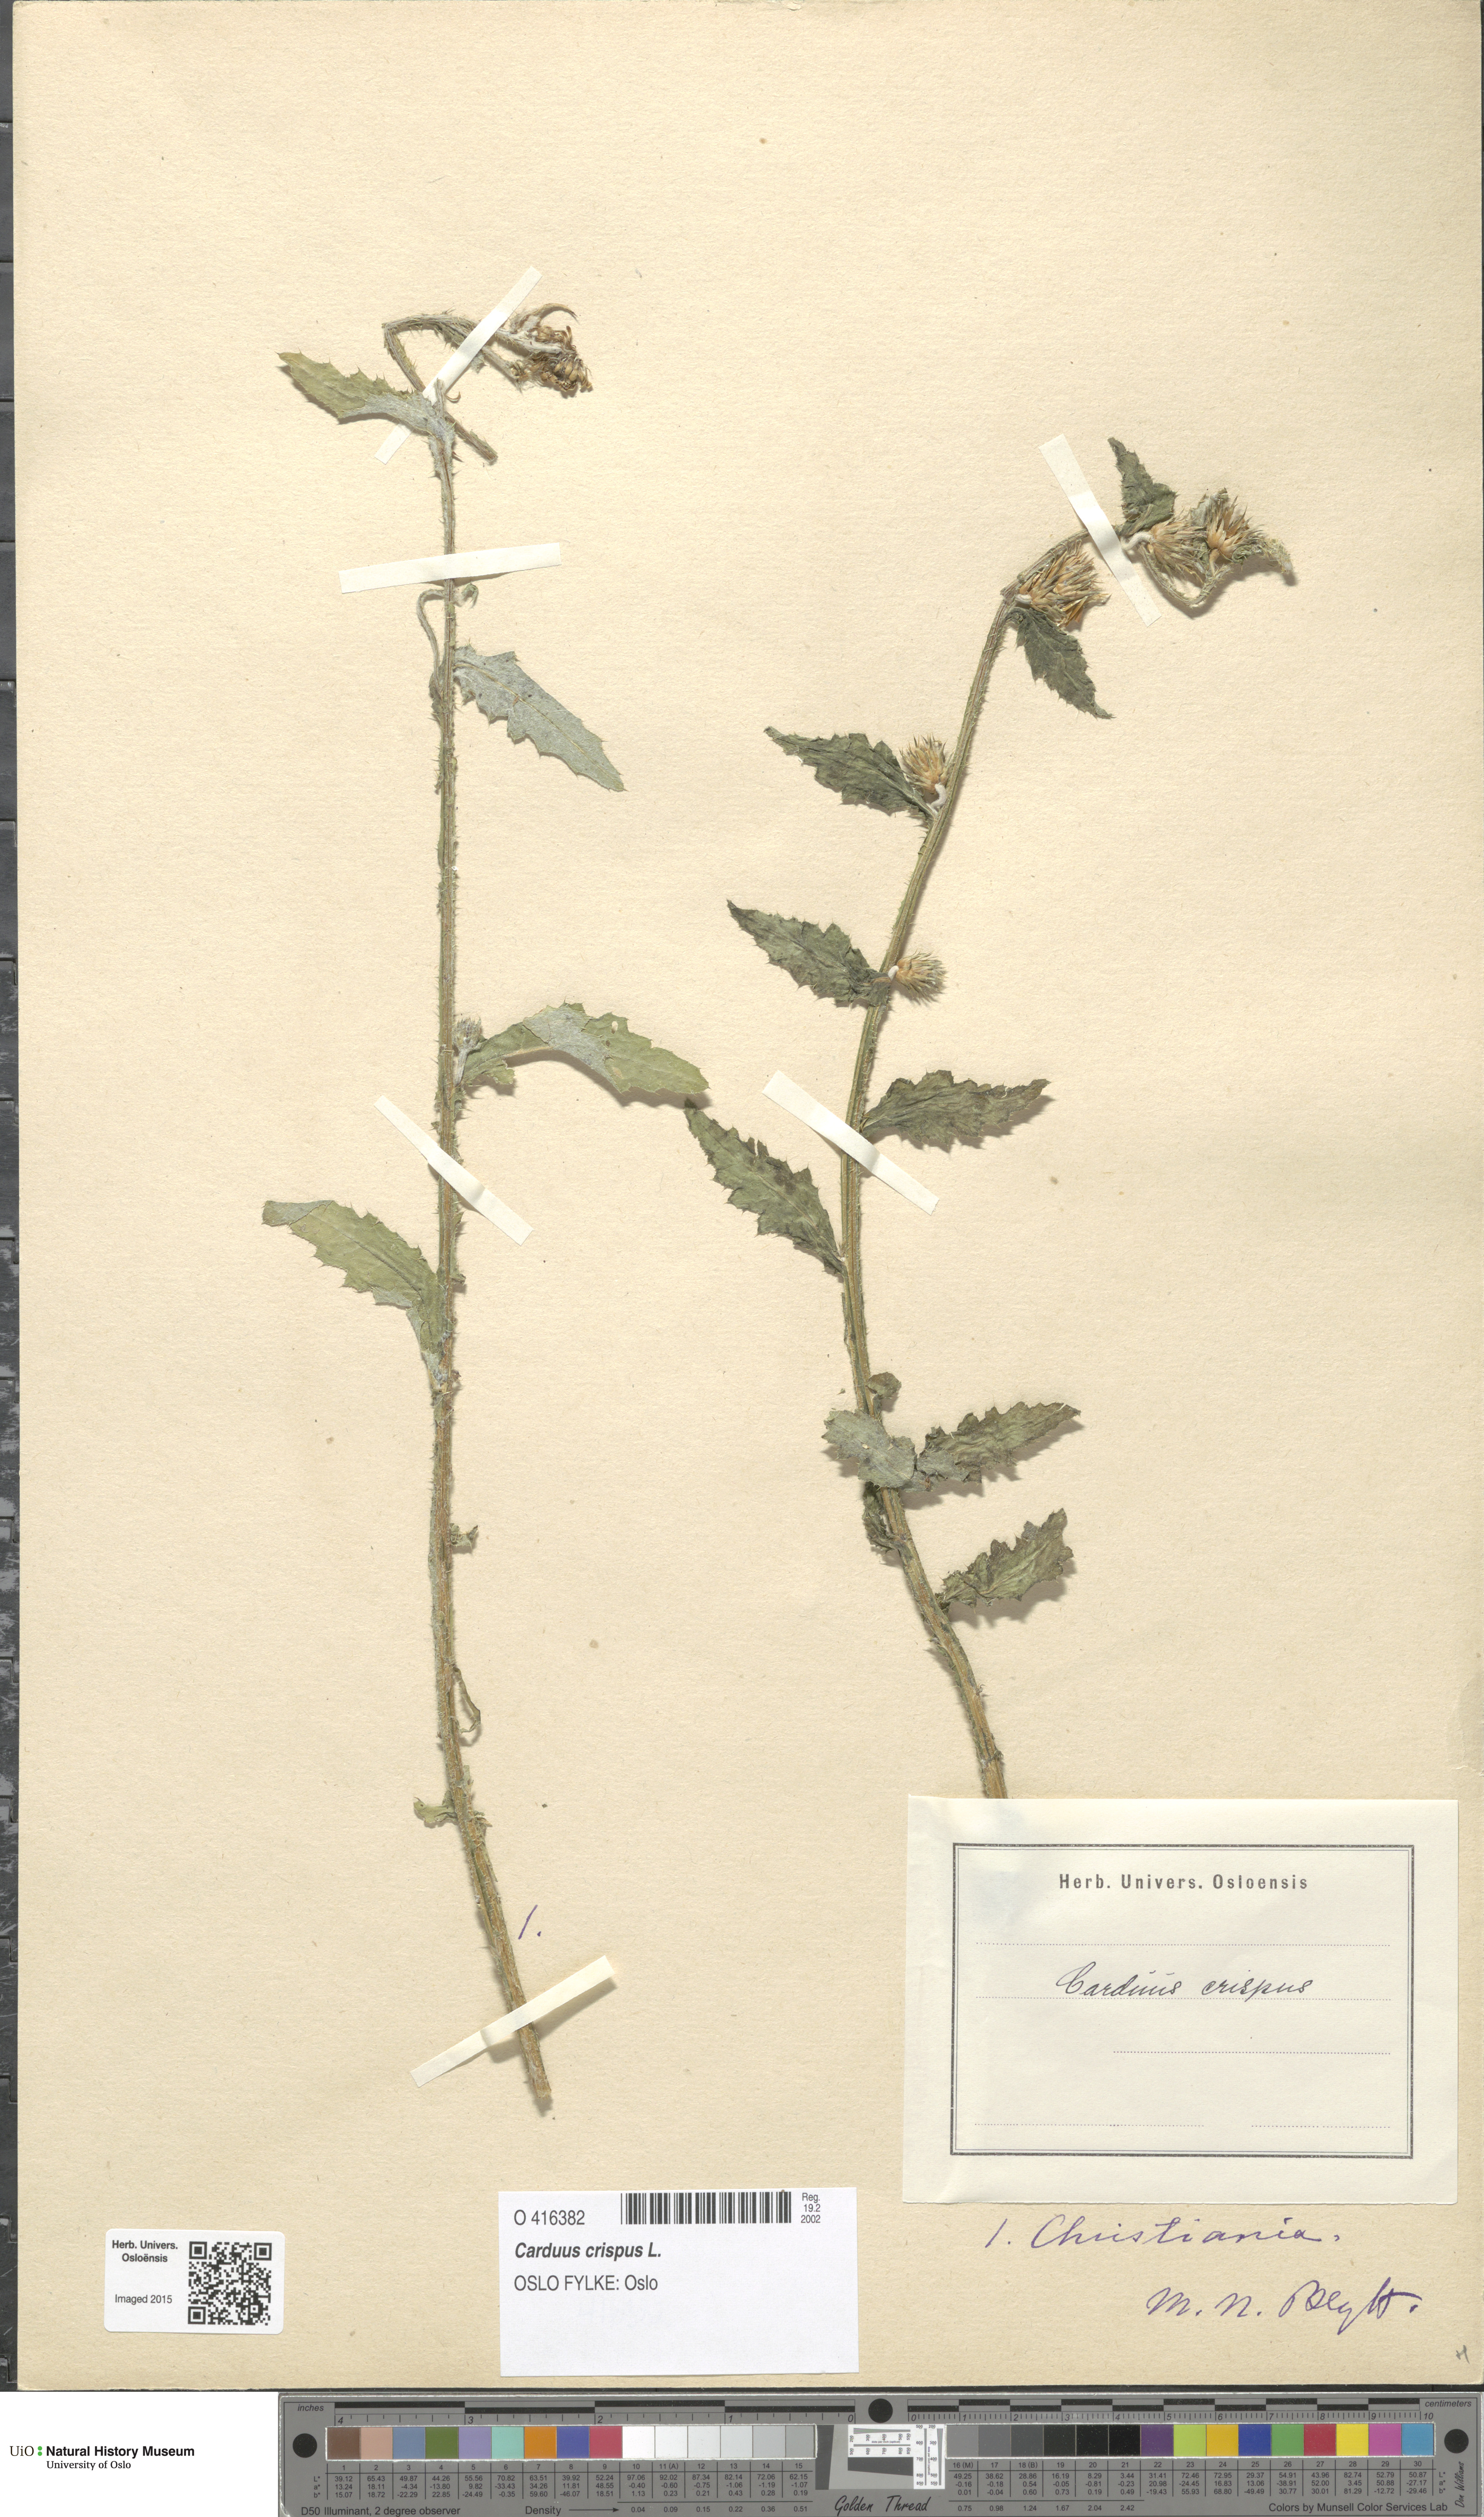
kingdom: Plantae
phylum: Tracheophyta
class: Magnoliopsida
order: Asterales
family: Asteraceae
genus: Carduus
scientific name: Carduus crispus
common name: Welted thistle
